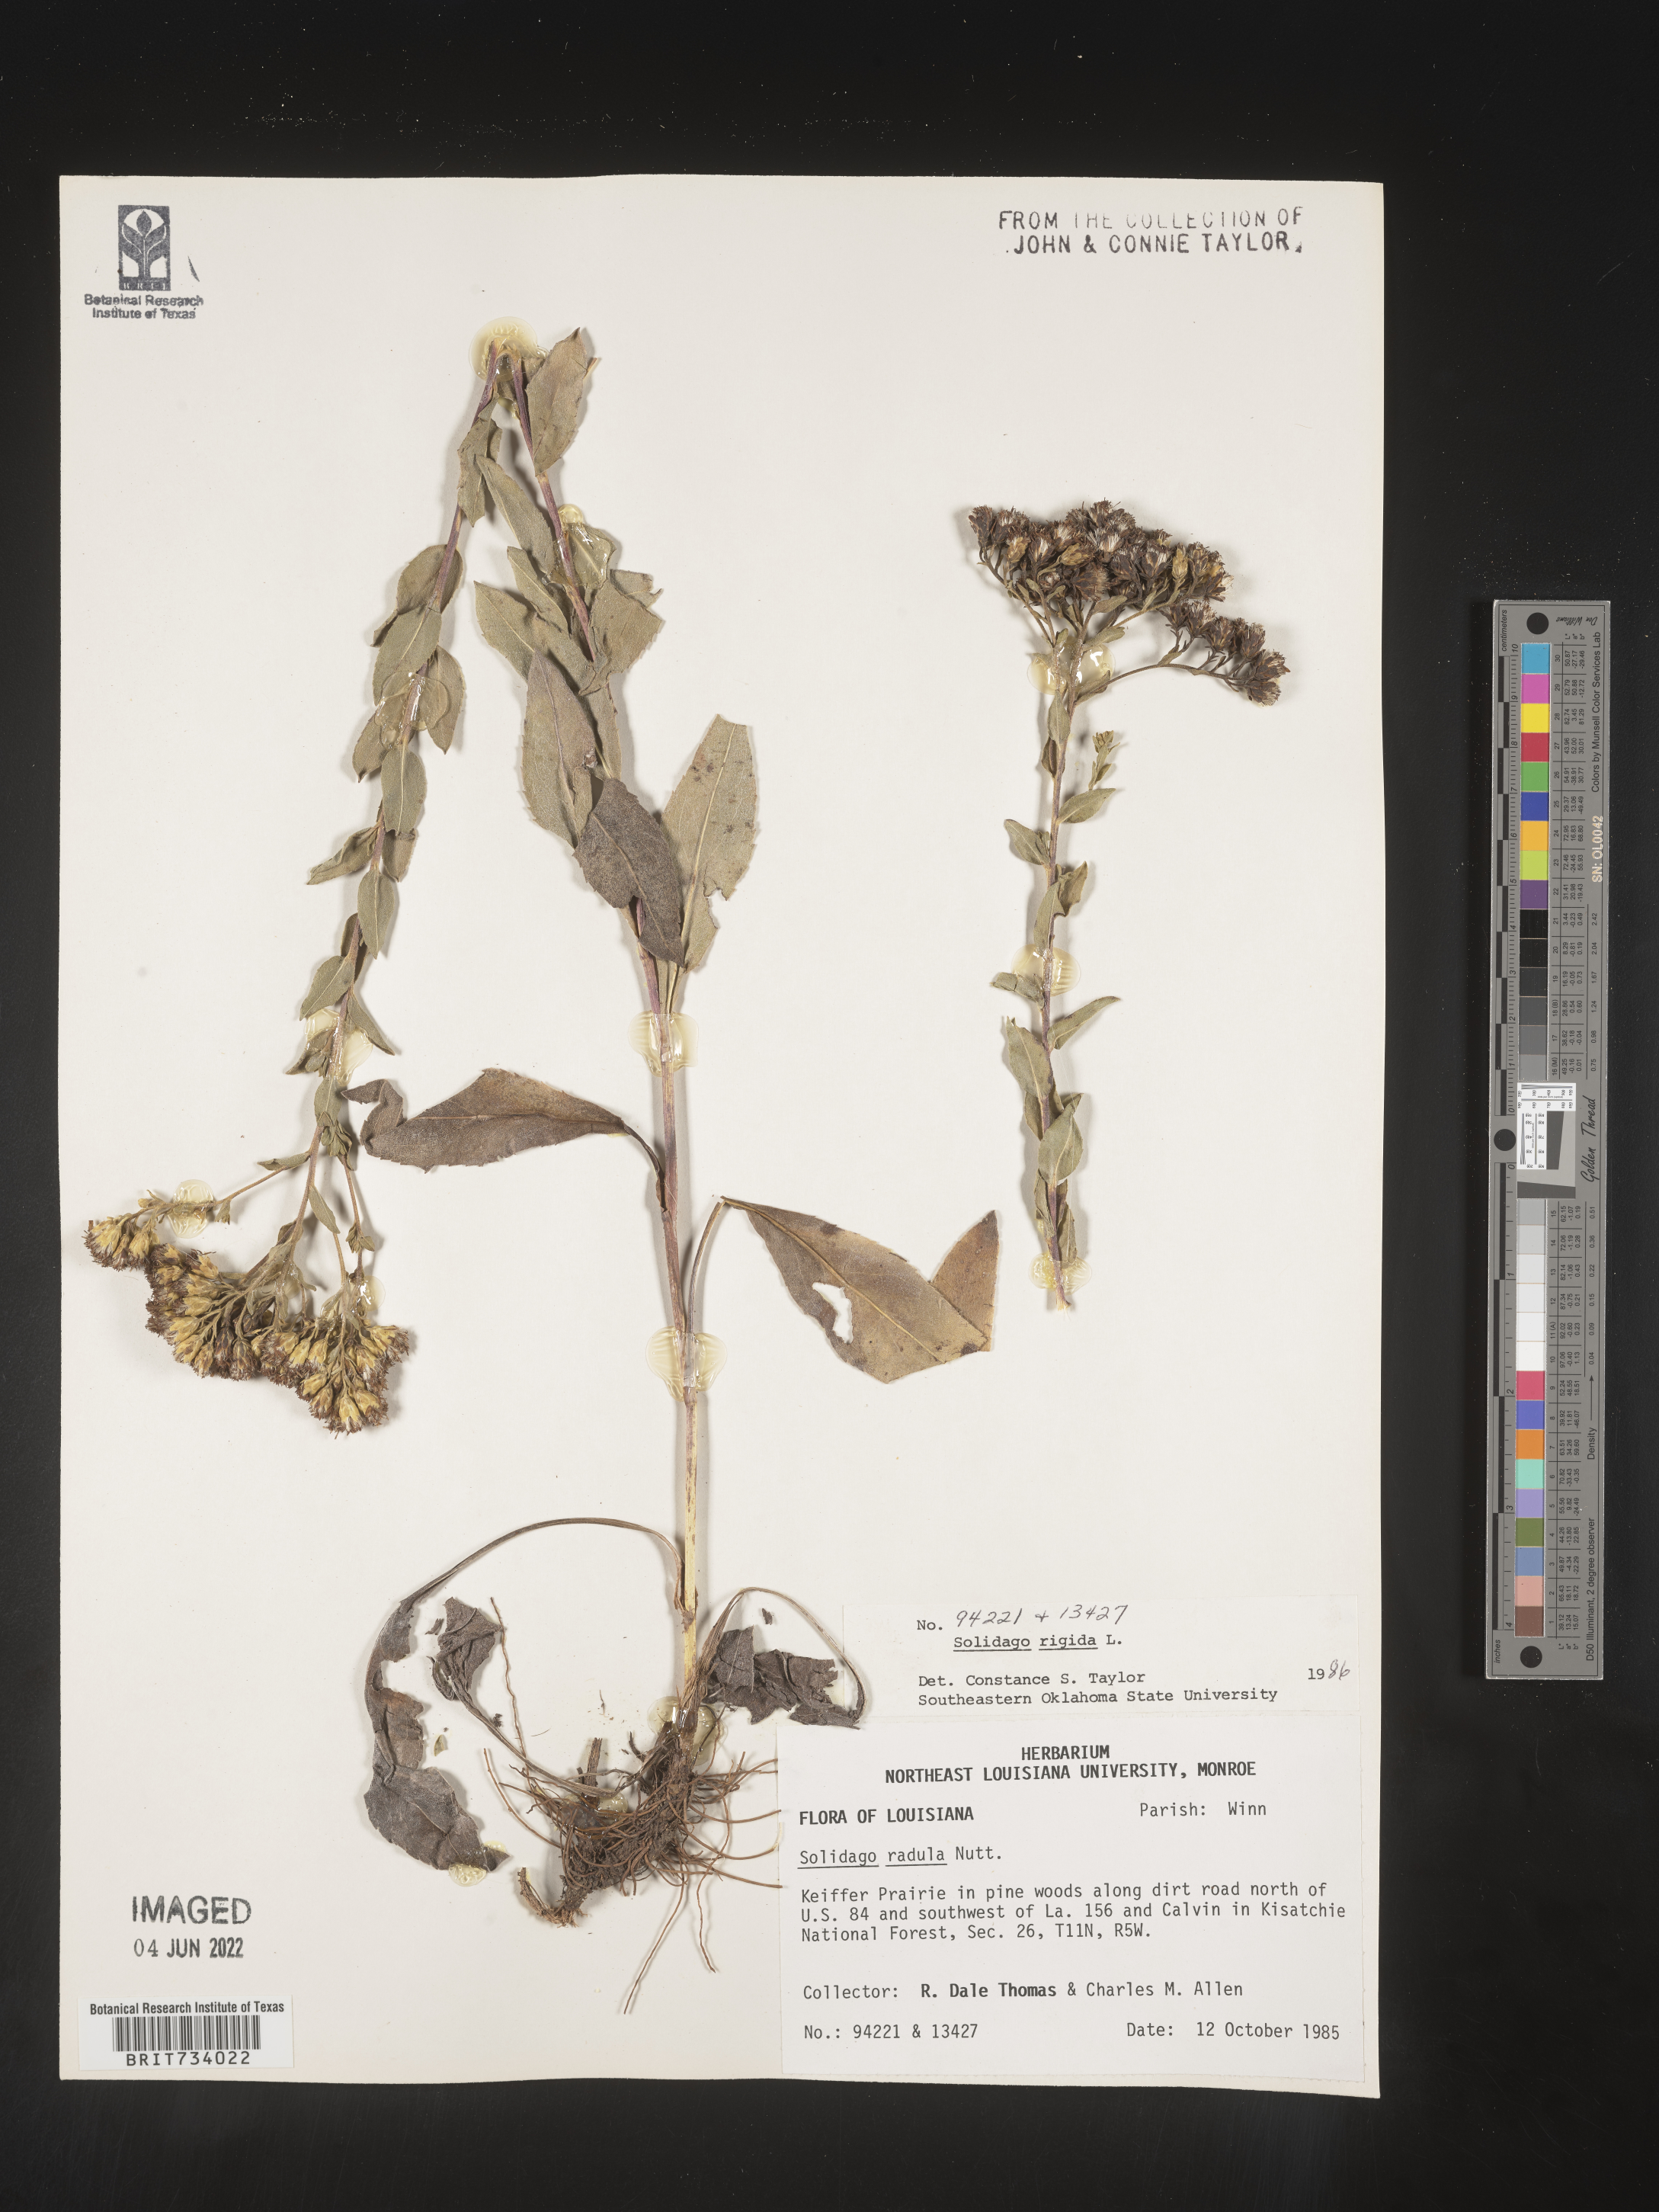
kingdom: Plantae
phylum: Tracheophyta
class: Magnoliopsida
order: Asterales
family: Asteraceae
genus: Solidago
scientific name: Solidago rigida
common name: Rigid goldenrod
